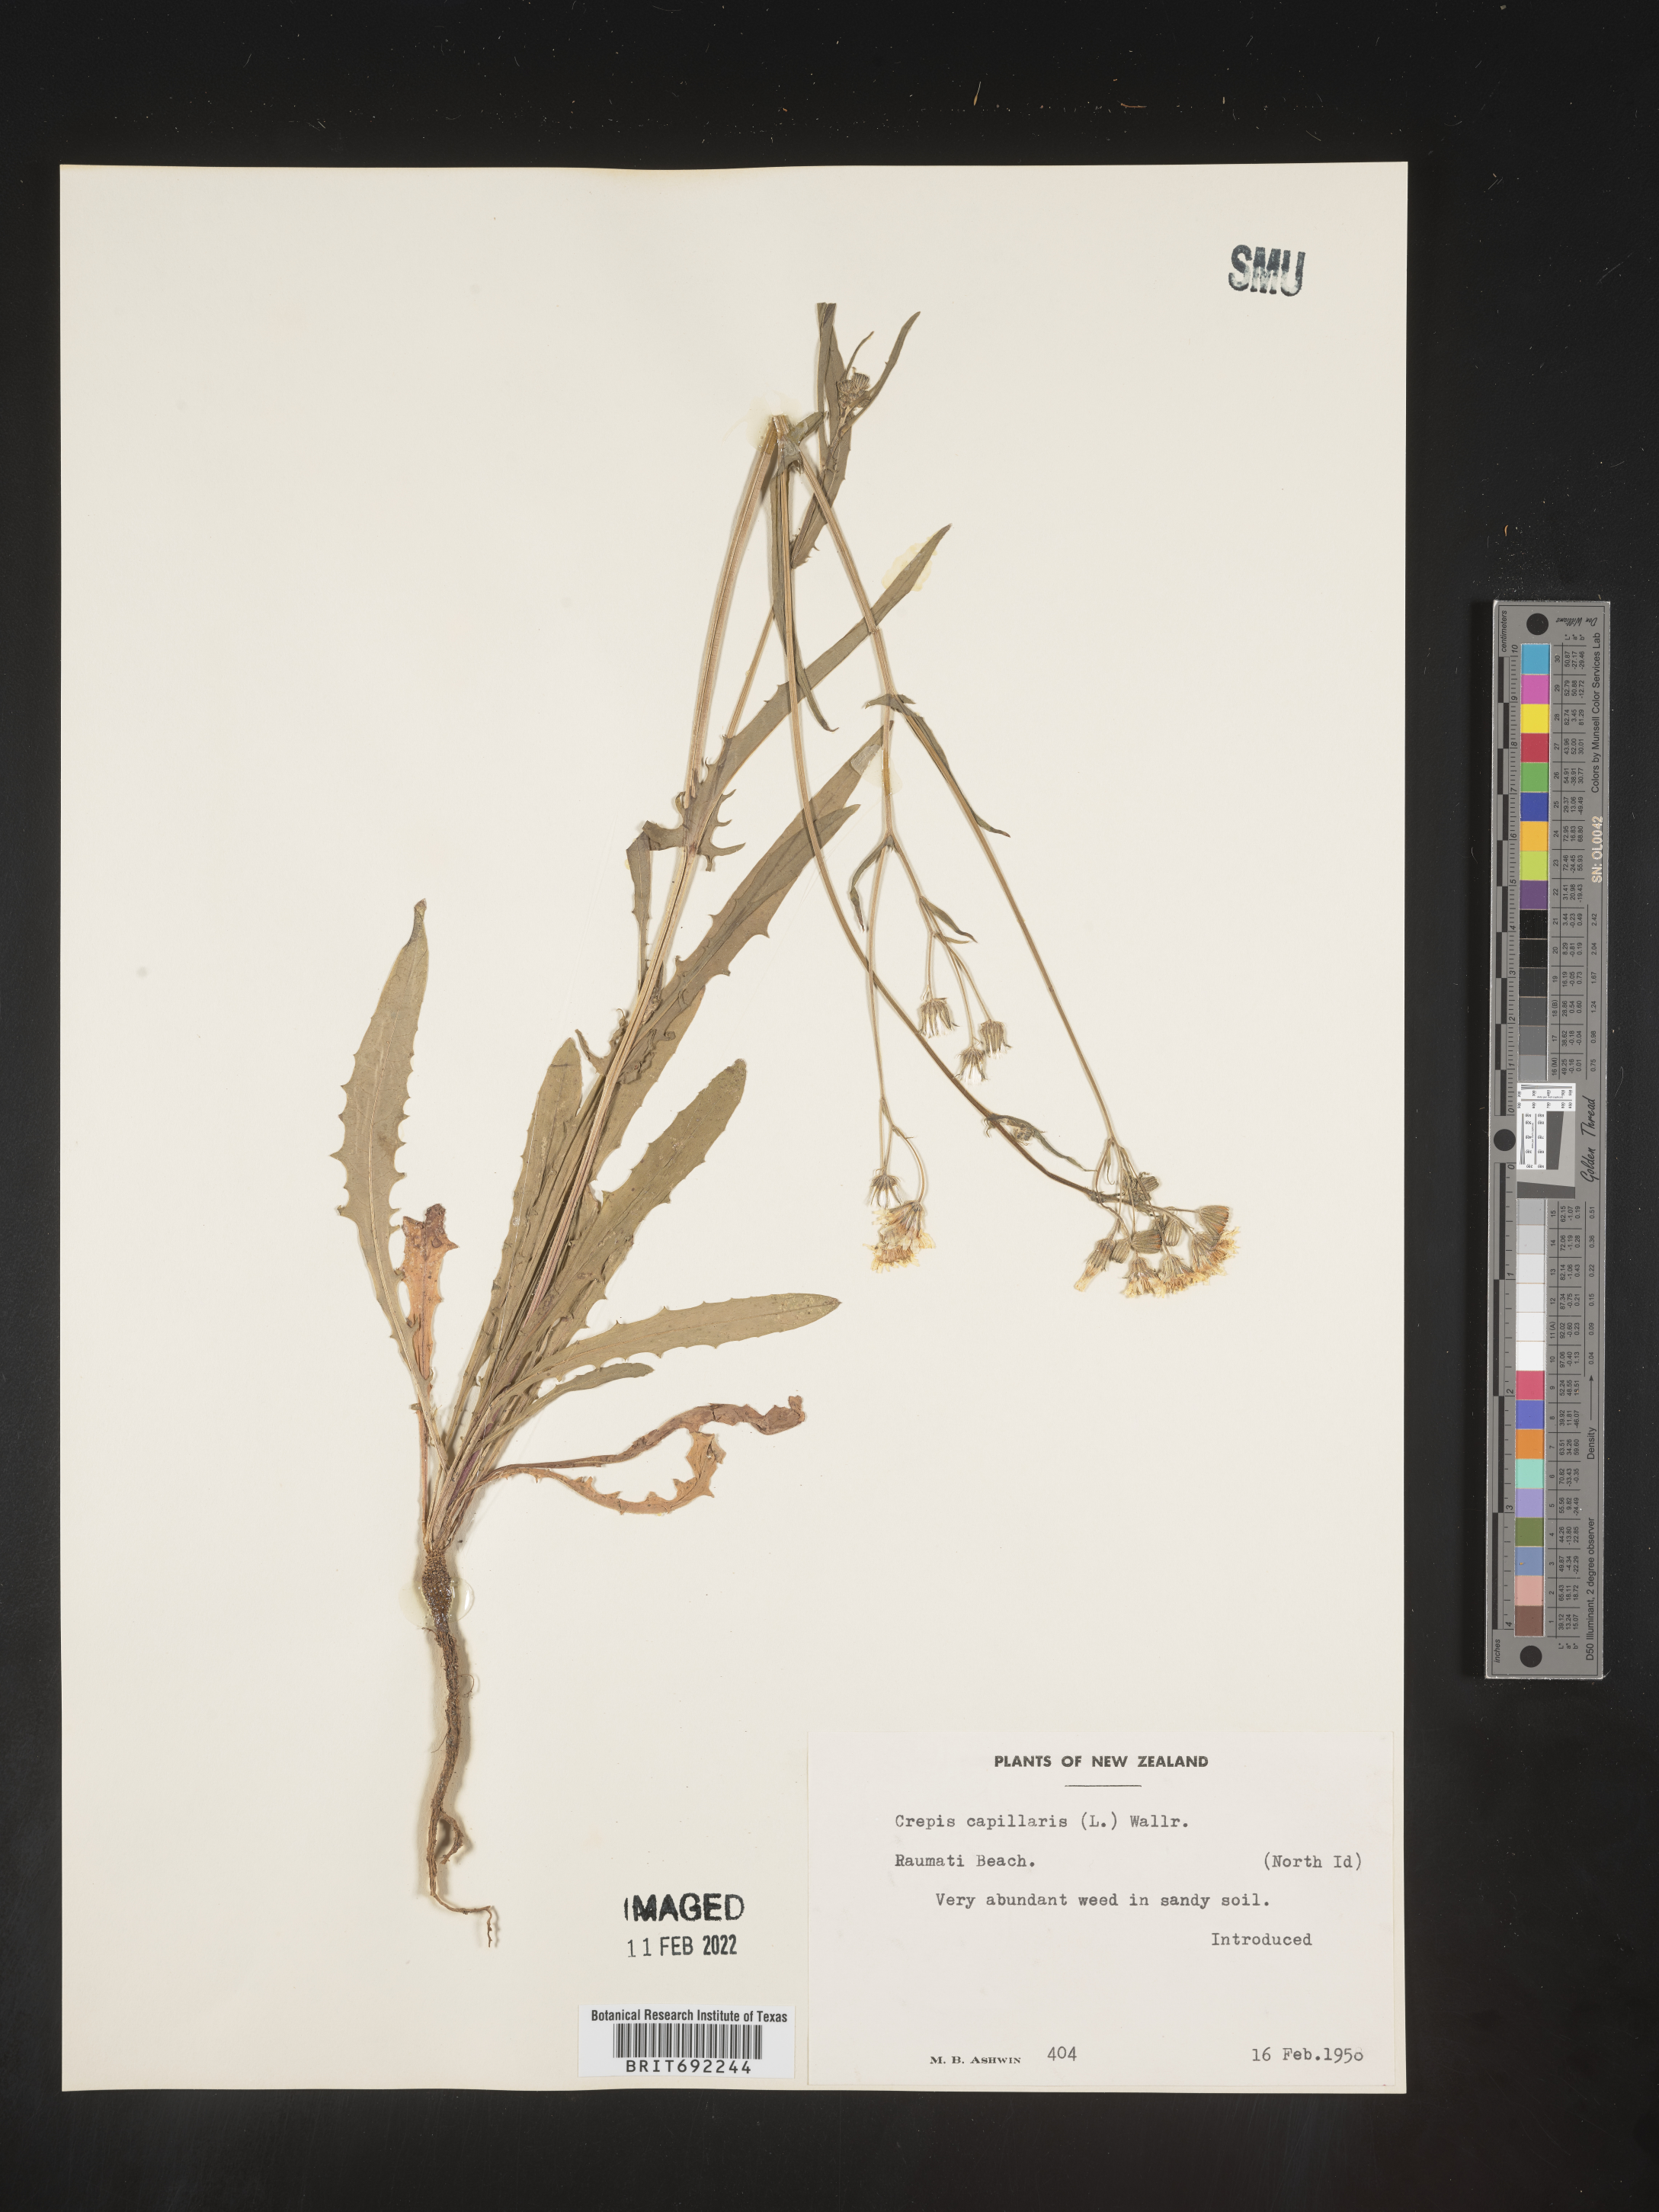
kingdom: Plantae
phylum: Tracheophyta
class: Magnoliopsida
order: Asterales
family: Asteraceae
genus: Critonia
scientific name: Critonia
